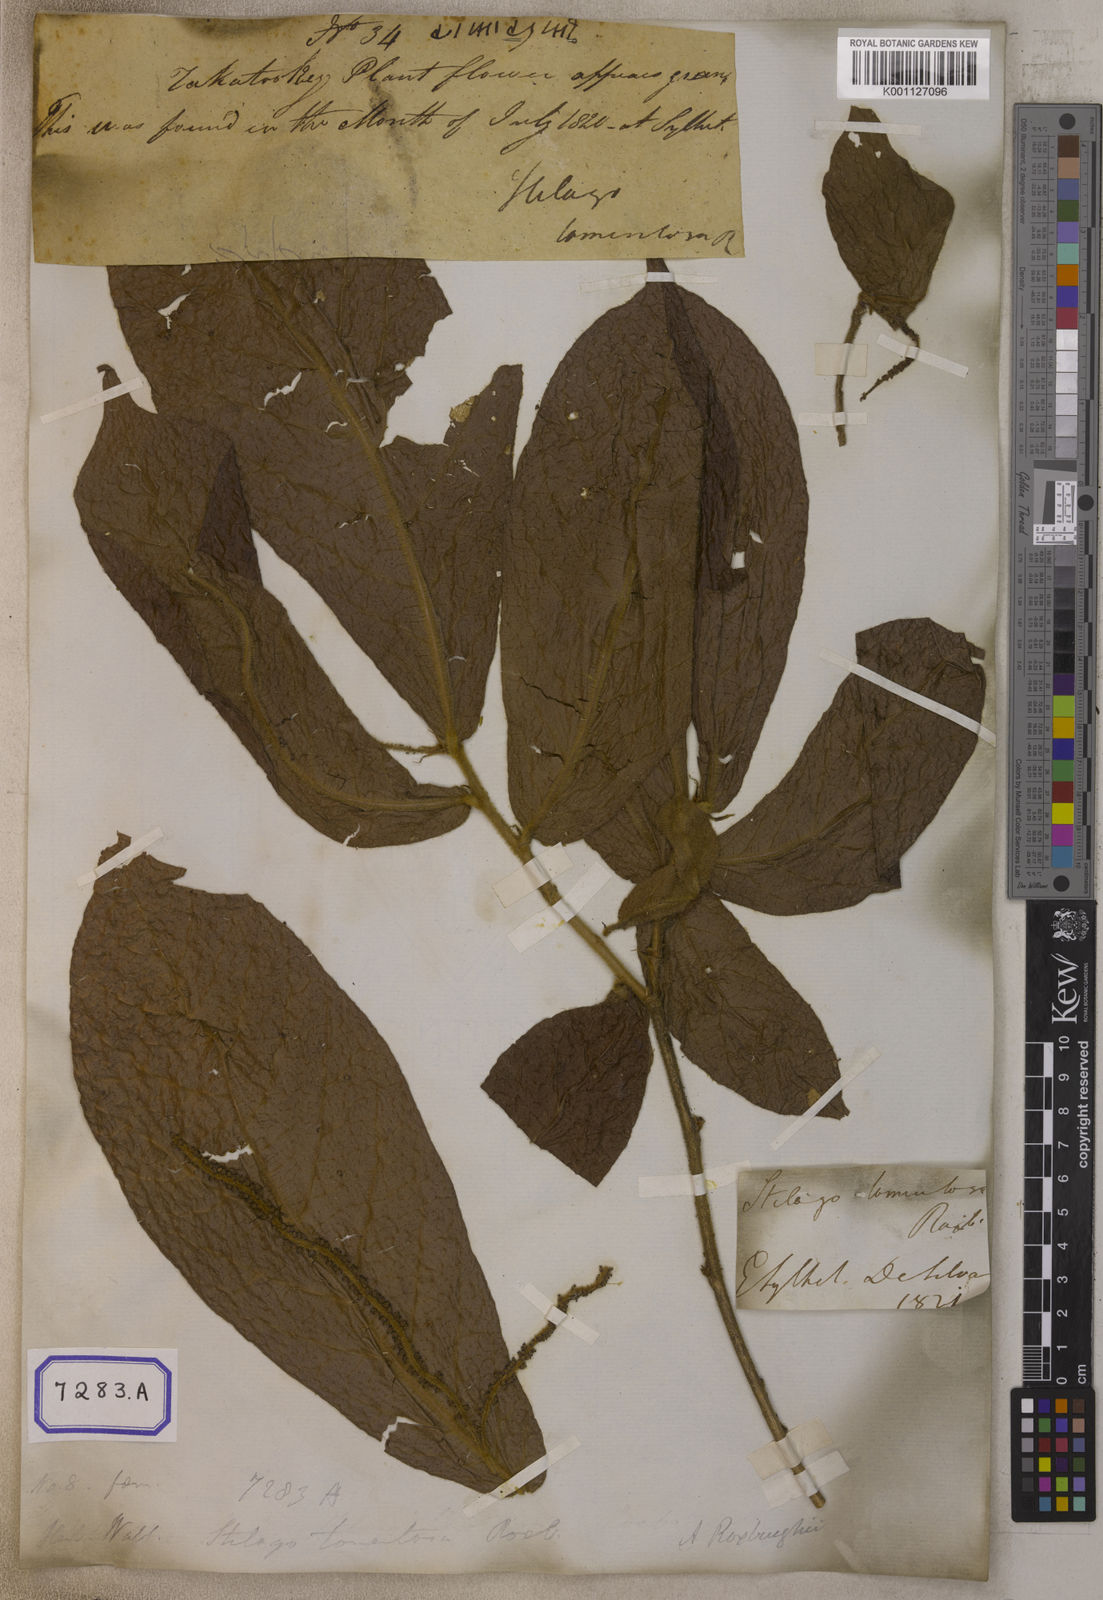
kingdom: Plantae
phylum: Tracheophyta
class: Magnoliopsida
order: Malpighiales
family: Phyllanthaceae
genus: Antidesma
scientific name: Antidesma
